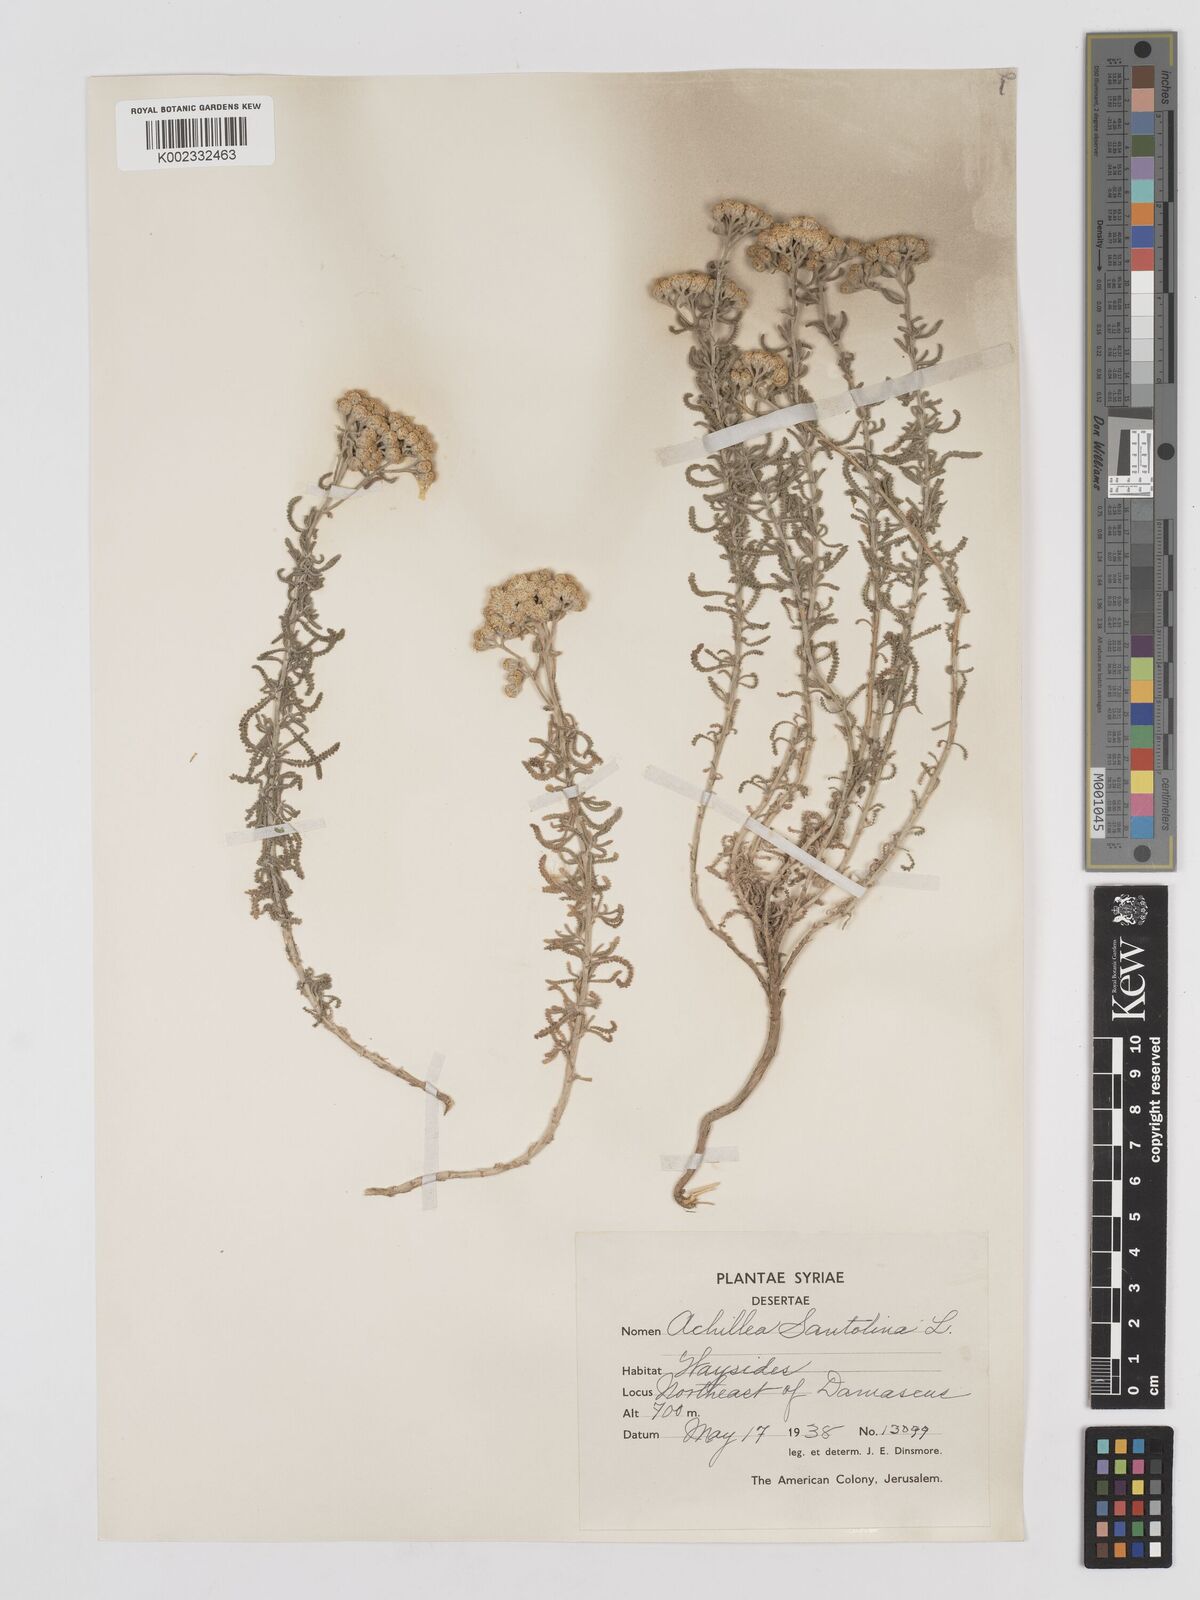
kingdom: Plantae
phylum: Tracheophyta
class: Magnoliopsida
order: Asterales
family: Asteraceae
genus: Achillea
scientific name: Achillea tenuifolia
